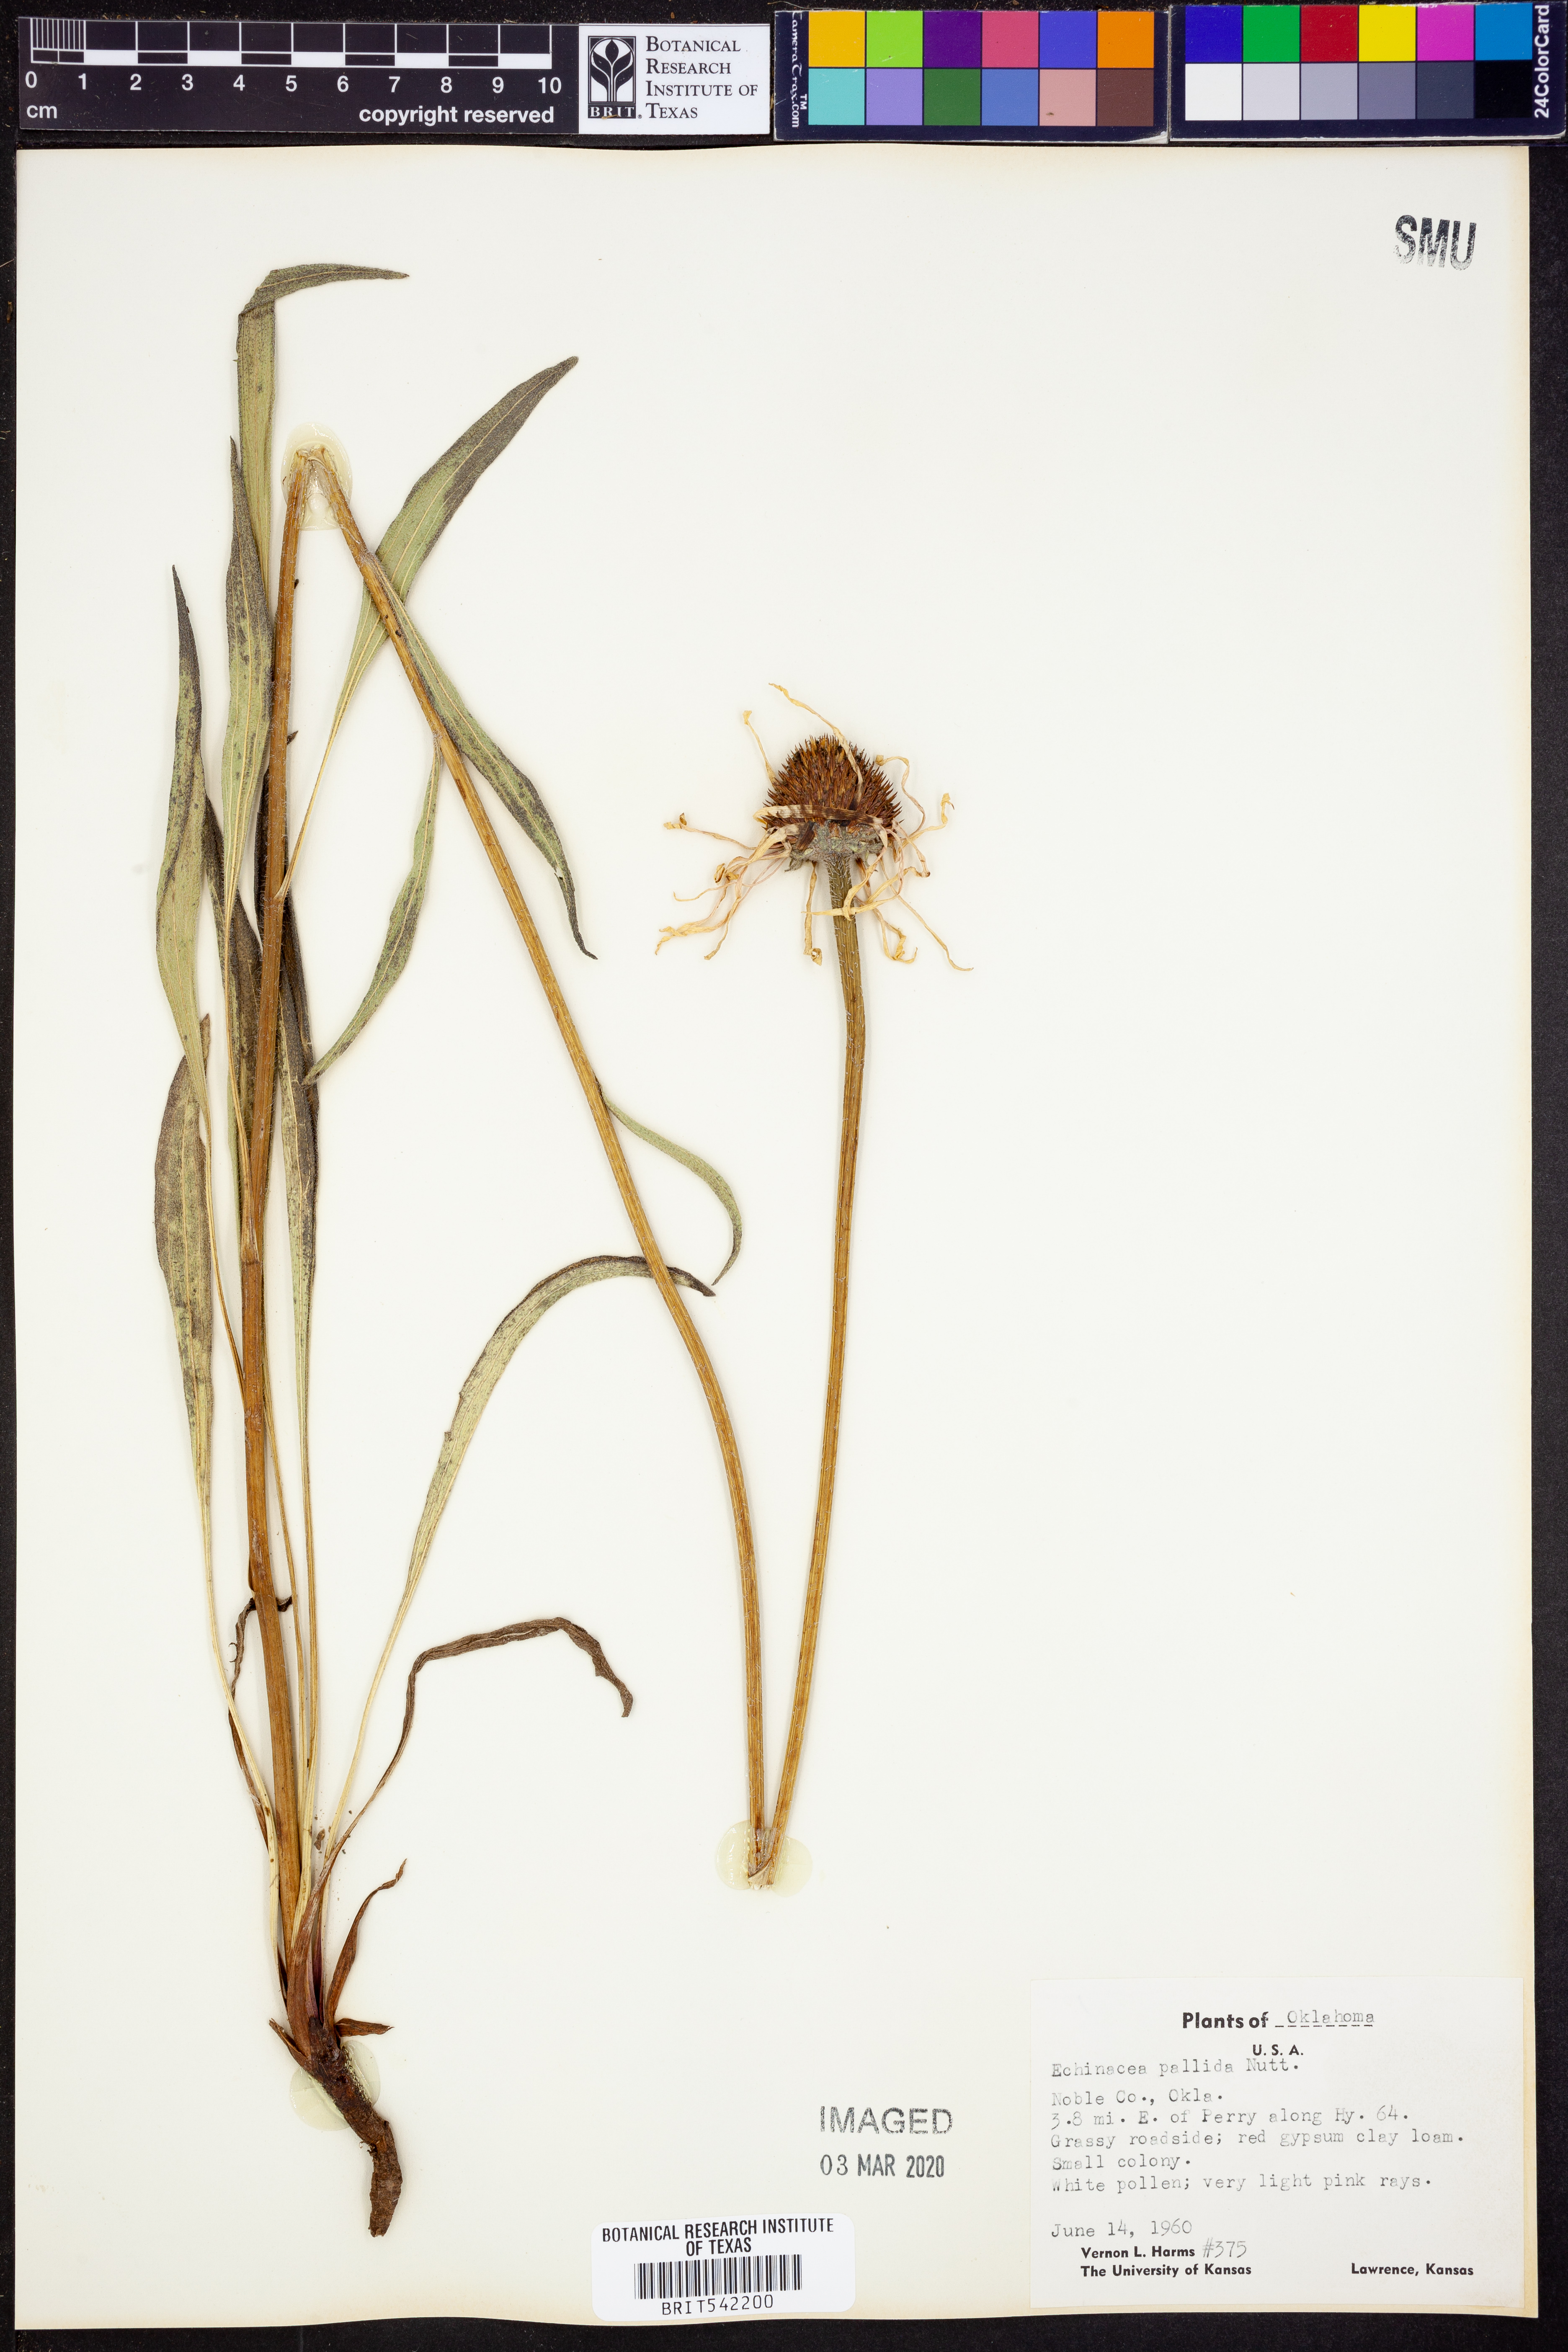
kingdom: Plantae
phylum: Tracheophyta
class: Magnoliopsida
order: Asterales
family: Asteraceae
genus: Echinacea
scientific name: Echinacea pallida
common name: Pale echinacea
